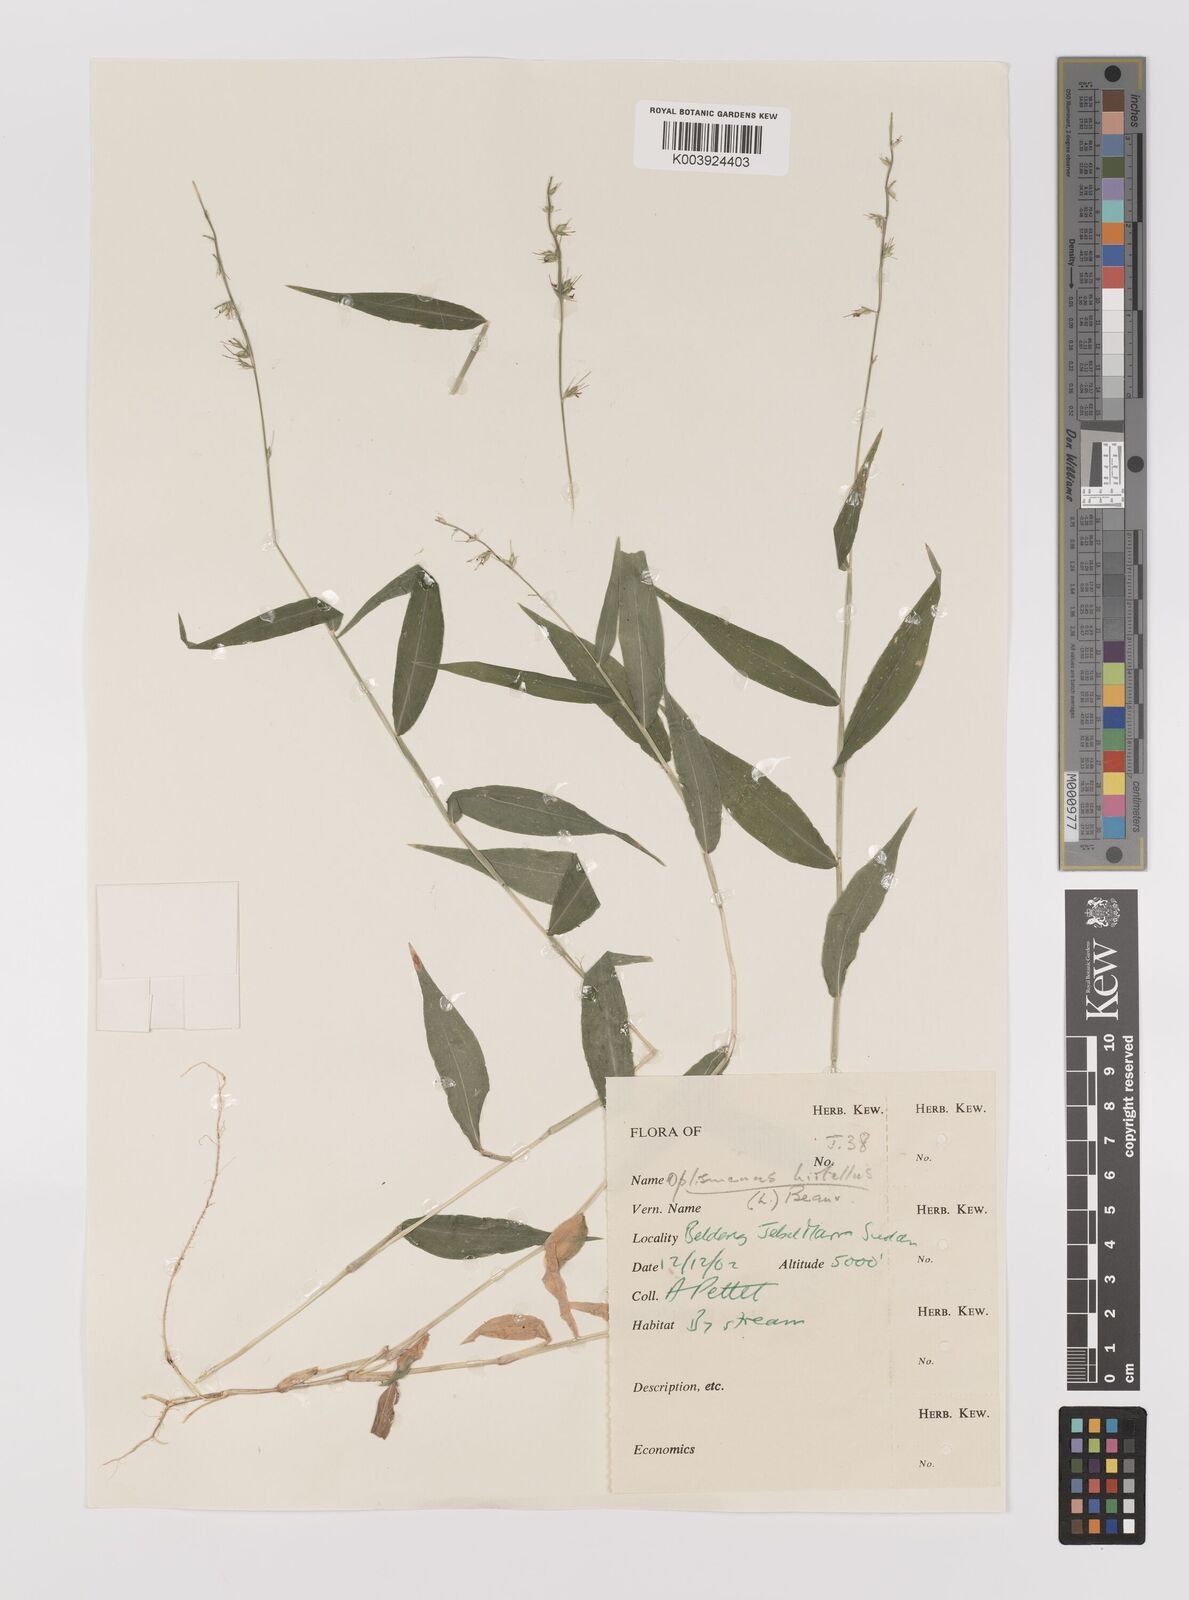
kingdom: Plantae
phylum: Tracheophyta
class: Liliopsida
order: Poales
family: Poaceae
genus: Oplismenus
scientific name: Oplismenus hirtellus
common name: Basketgrass
